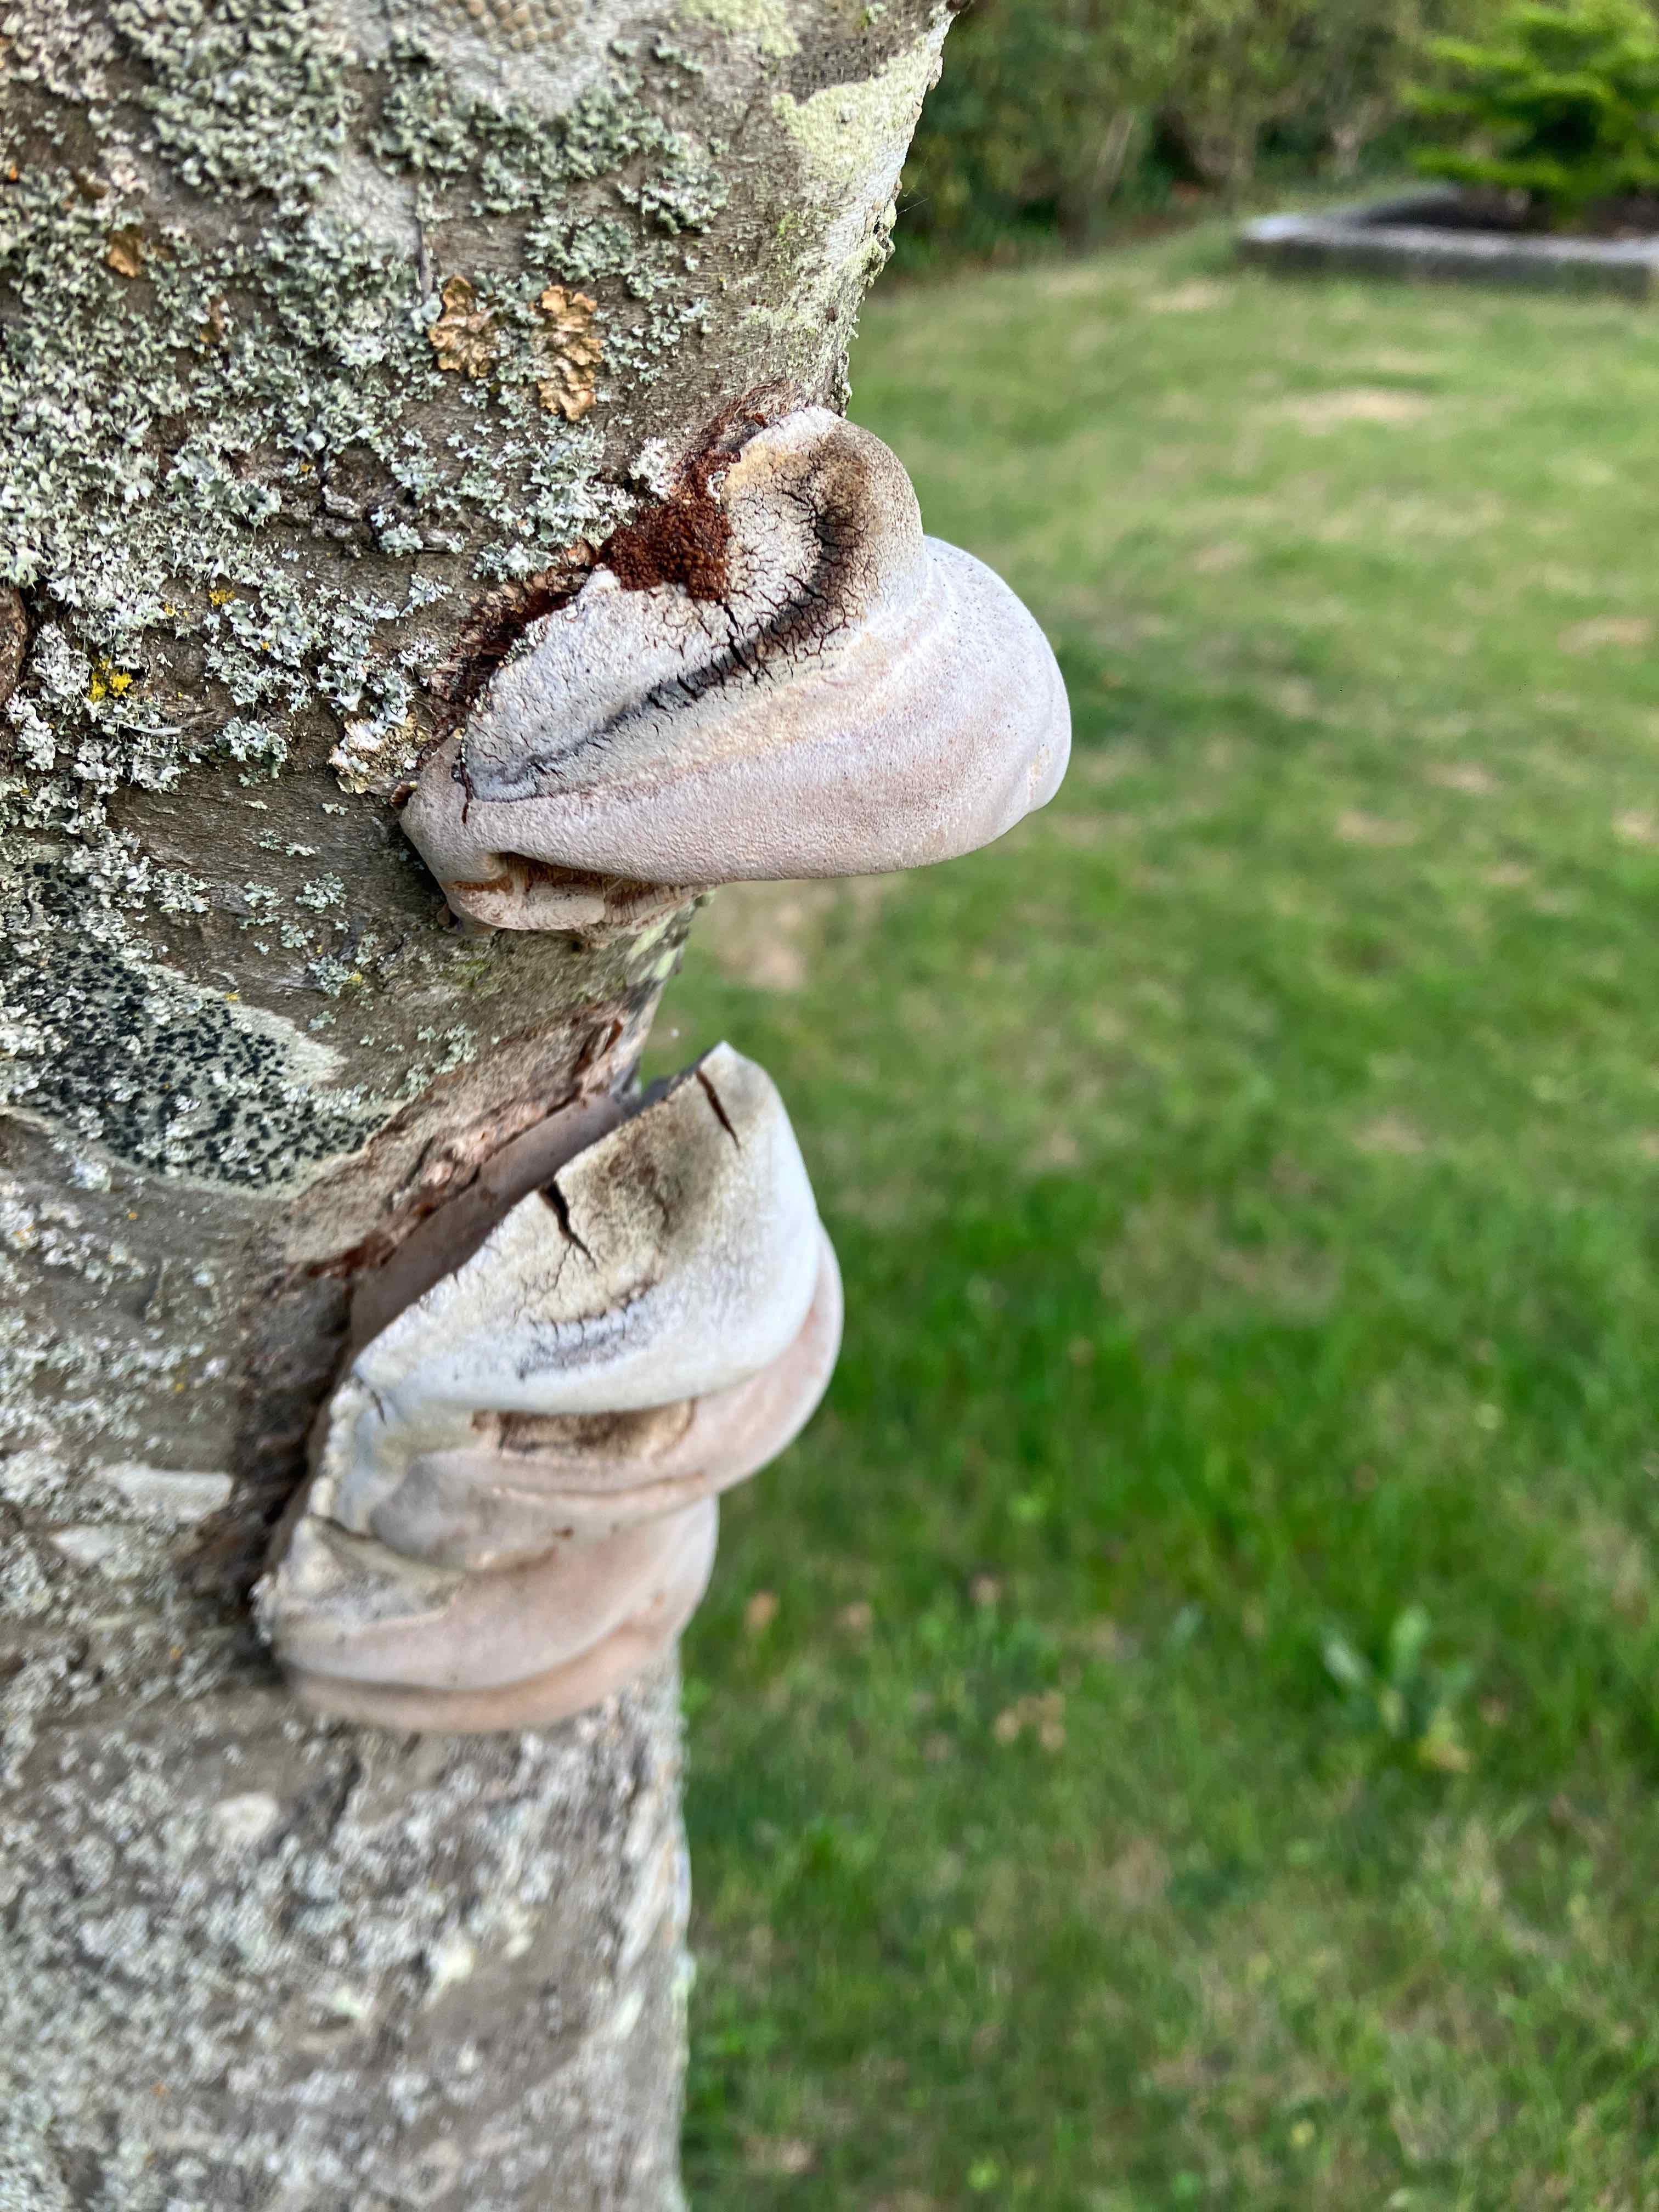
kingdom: Fungi
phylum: Basidiomycota
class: Agaricomycetes
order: Polyporales
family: Polyporaceae
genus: Fomes
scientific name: Fomes fomentarius
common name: tøndersvamp
